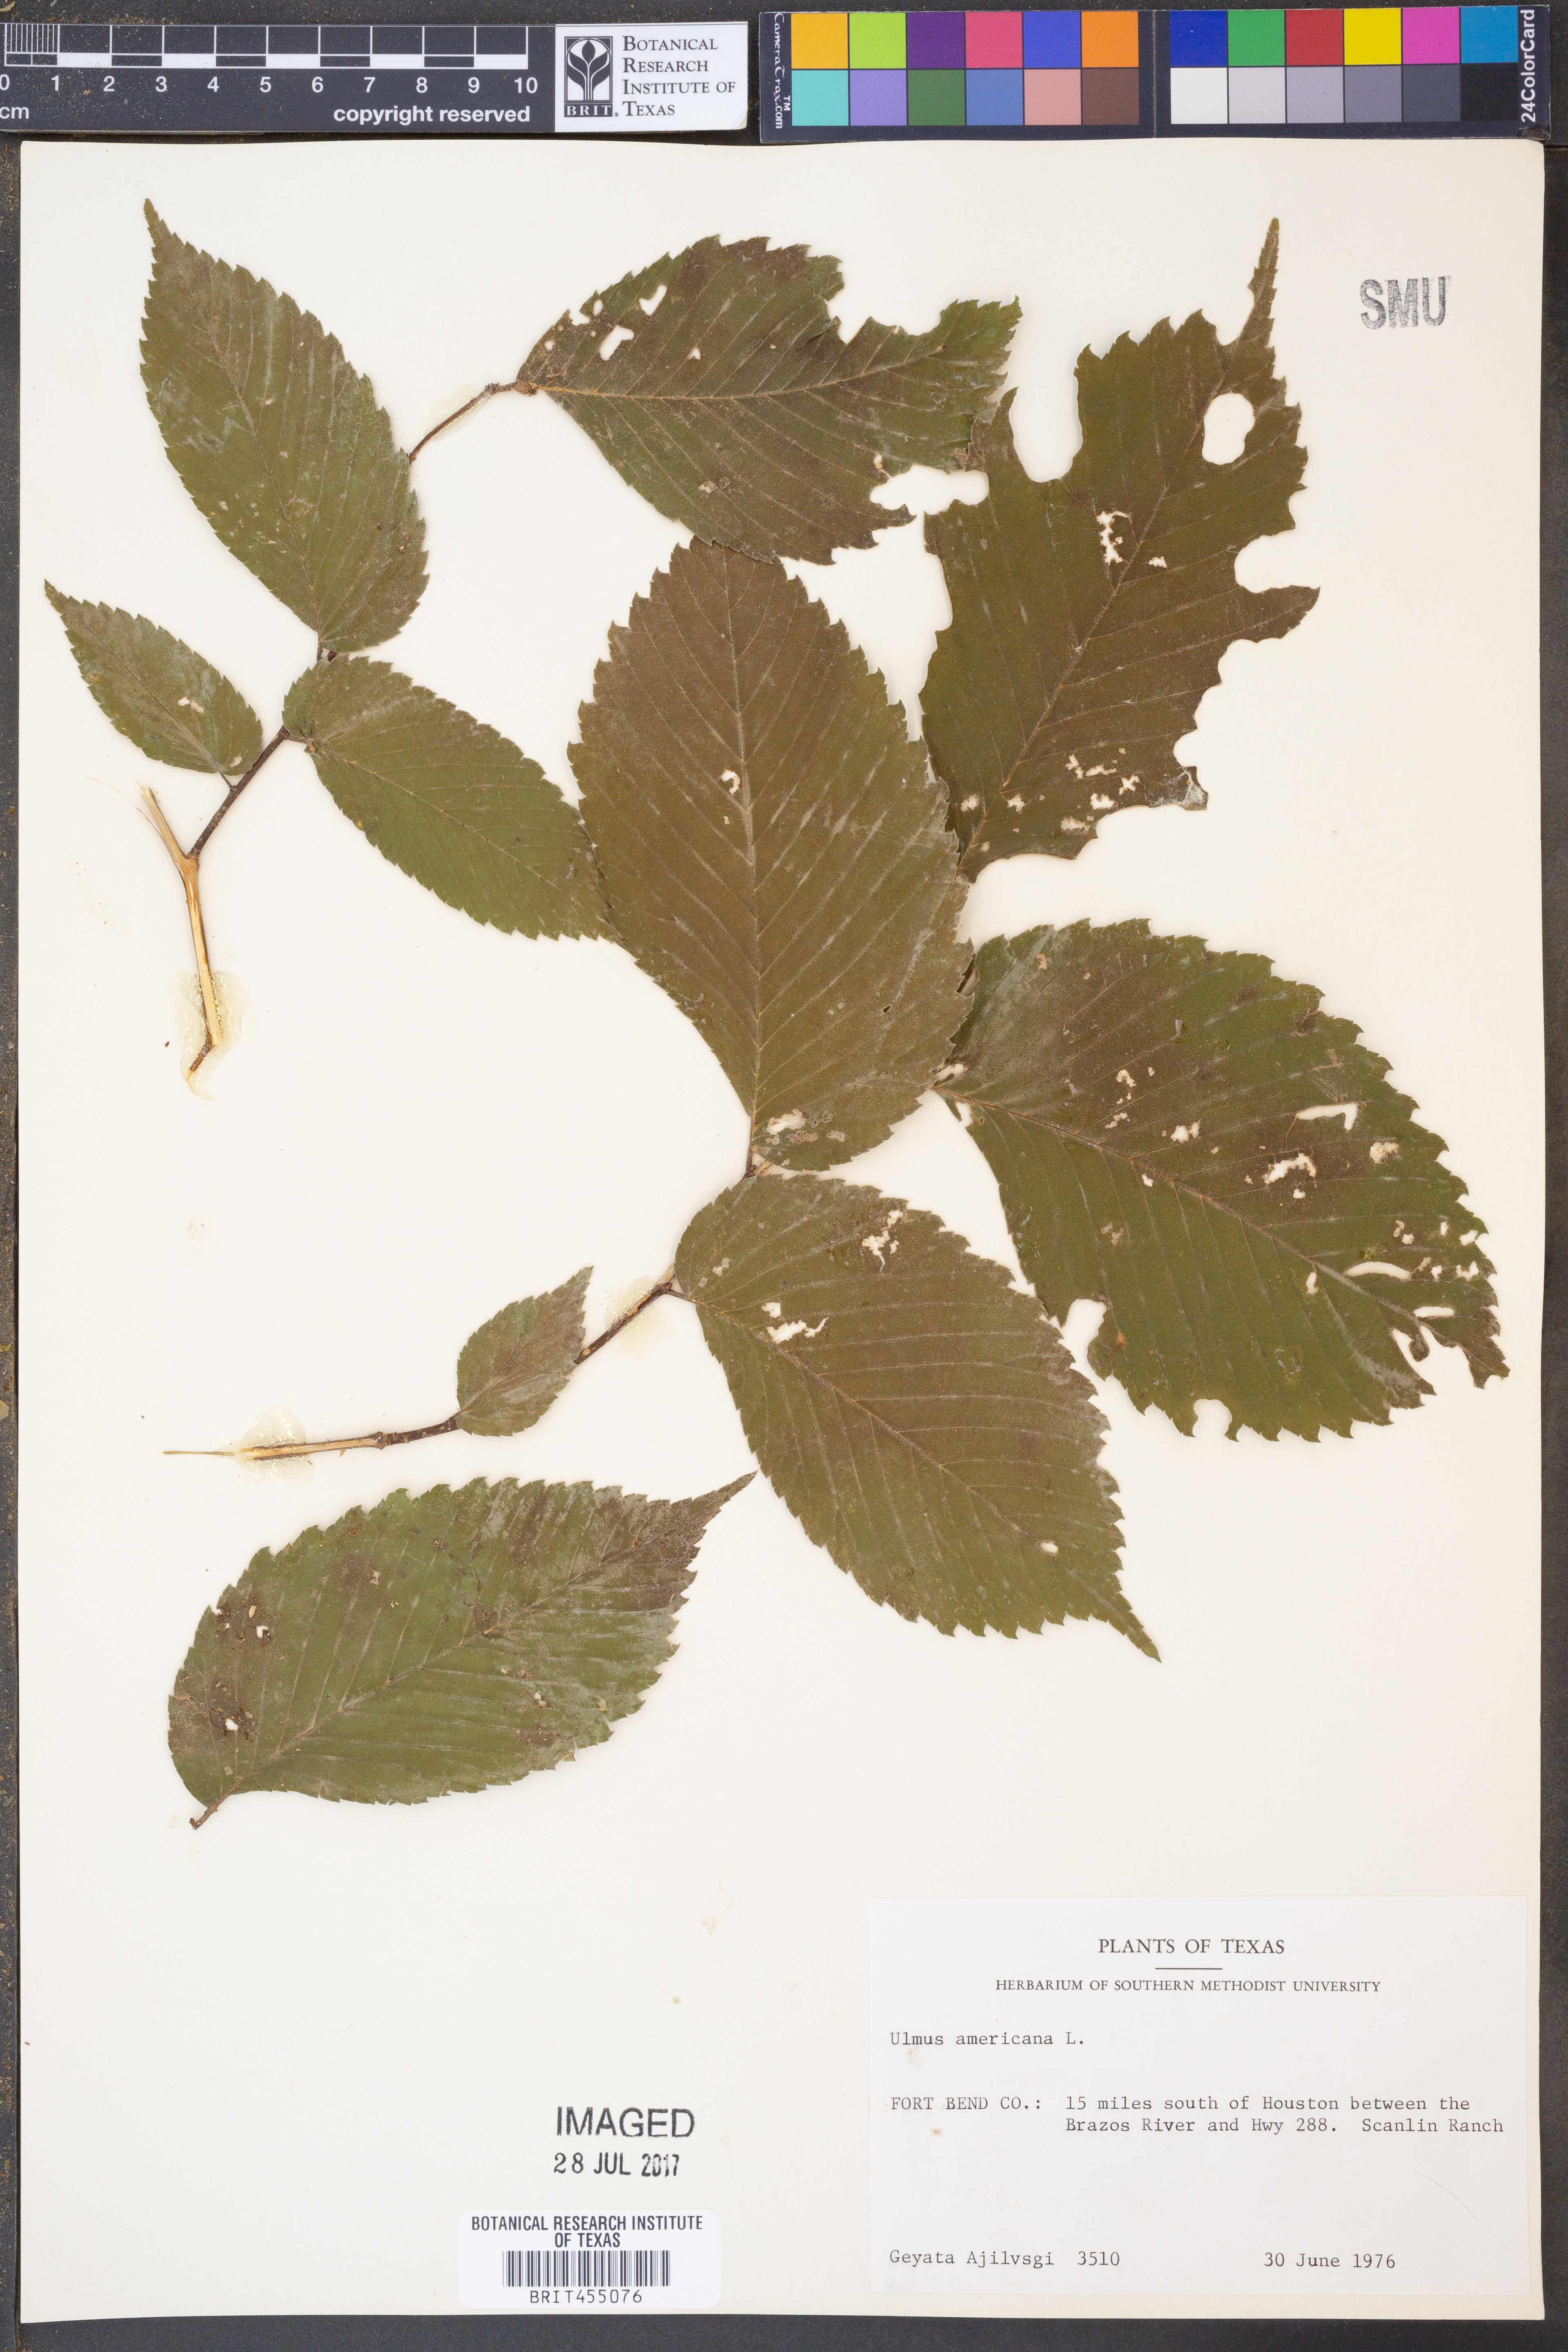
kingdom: Plantae
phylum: Tracheophyta
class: Magnoliopsida
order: Rosales
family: Ulmaceae
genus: Ulmus
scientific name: Ulmus americana
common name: American elm
